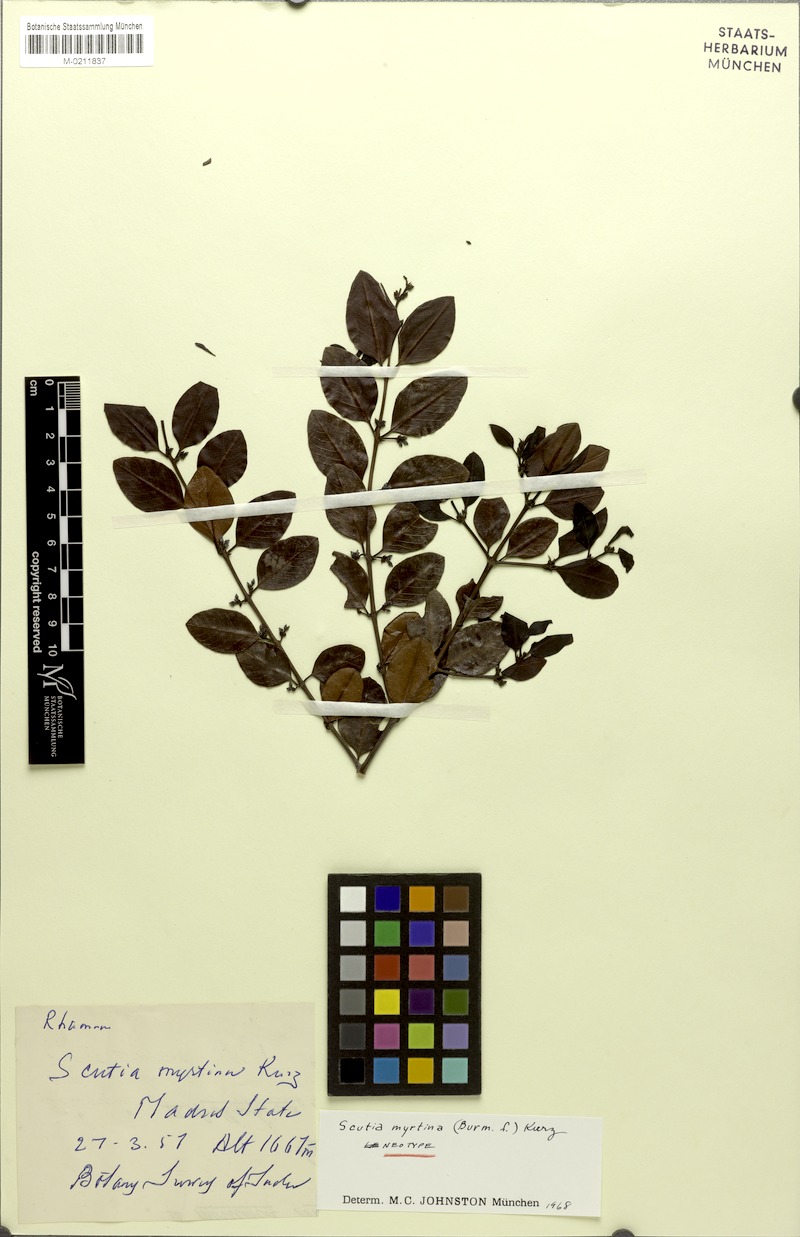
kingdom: Plantae
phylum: Tracheophyta
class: Magnoliopsida
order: Rosales
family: Rhamnaceae
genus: Scutia
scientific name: Scutia myrtina
